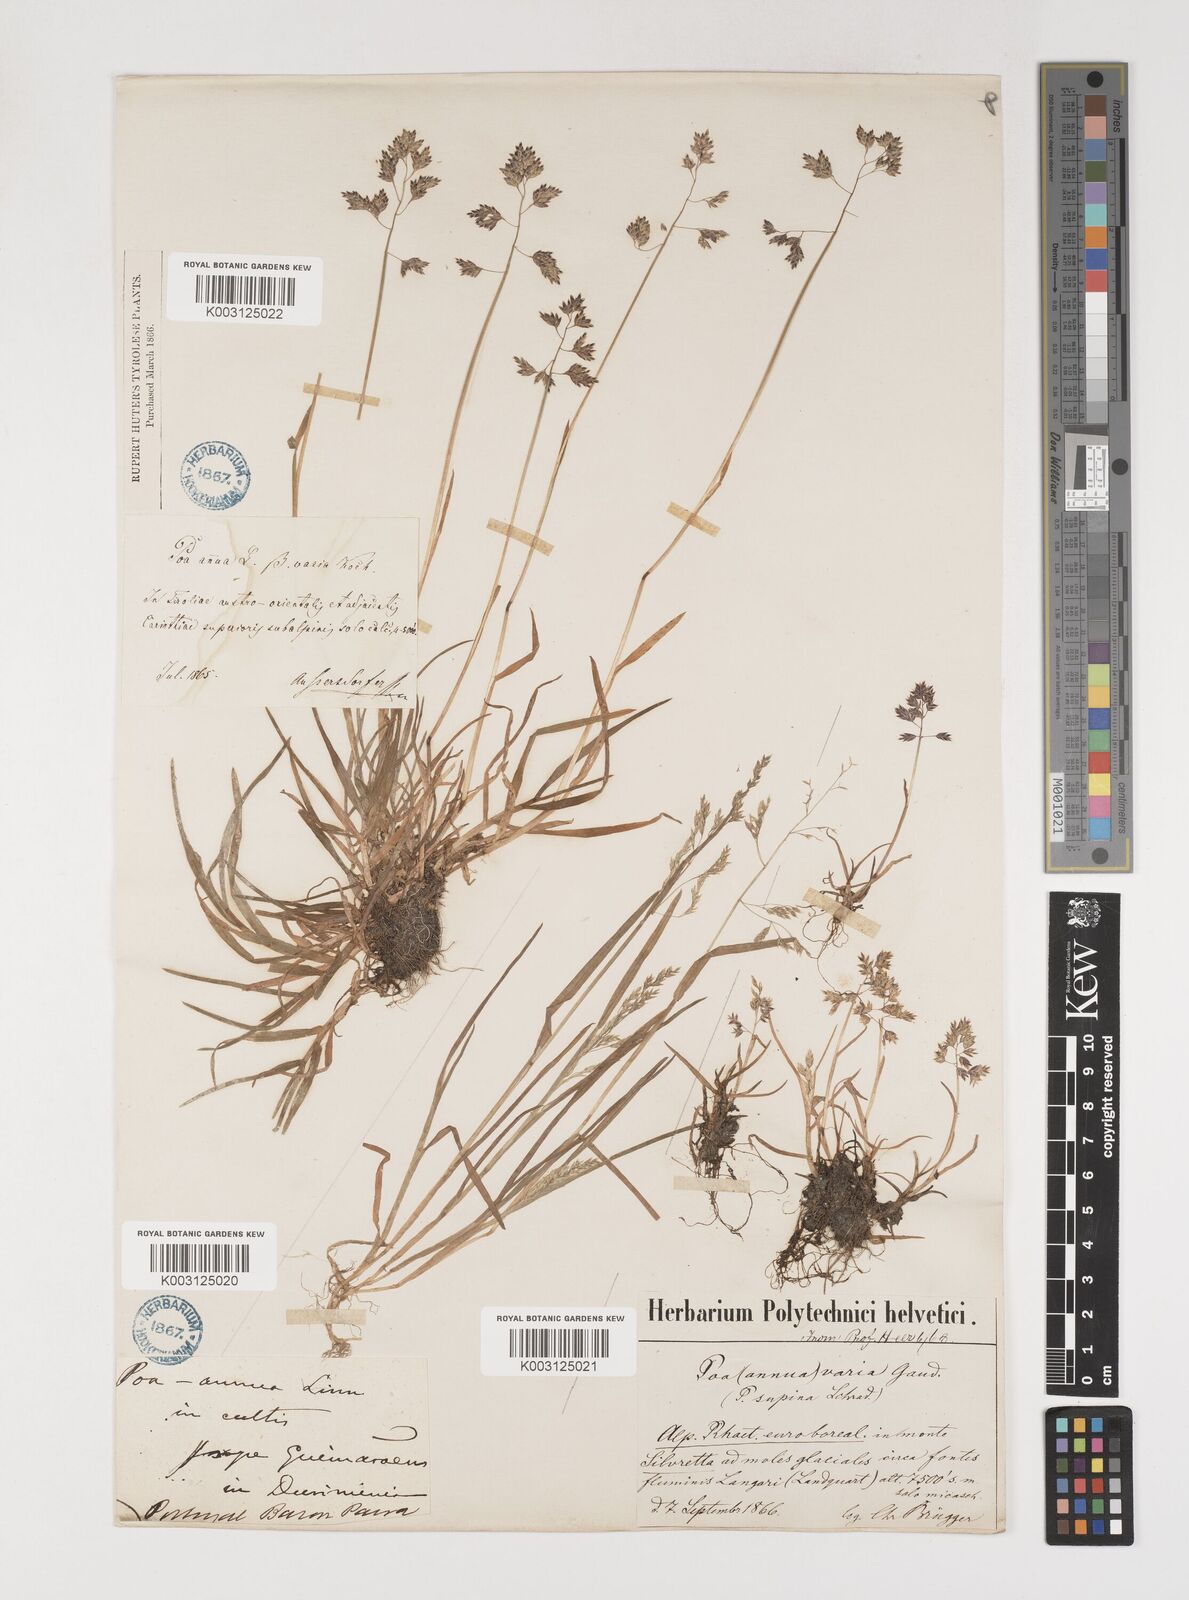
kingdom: Plantae
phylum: Tracheophyta
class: Liliopsida
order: Poales
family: Poaceae
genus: Poa
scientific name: Poa supina
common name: Supina bluegrass
